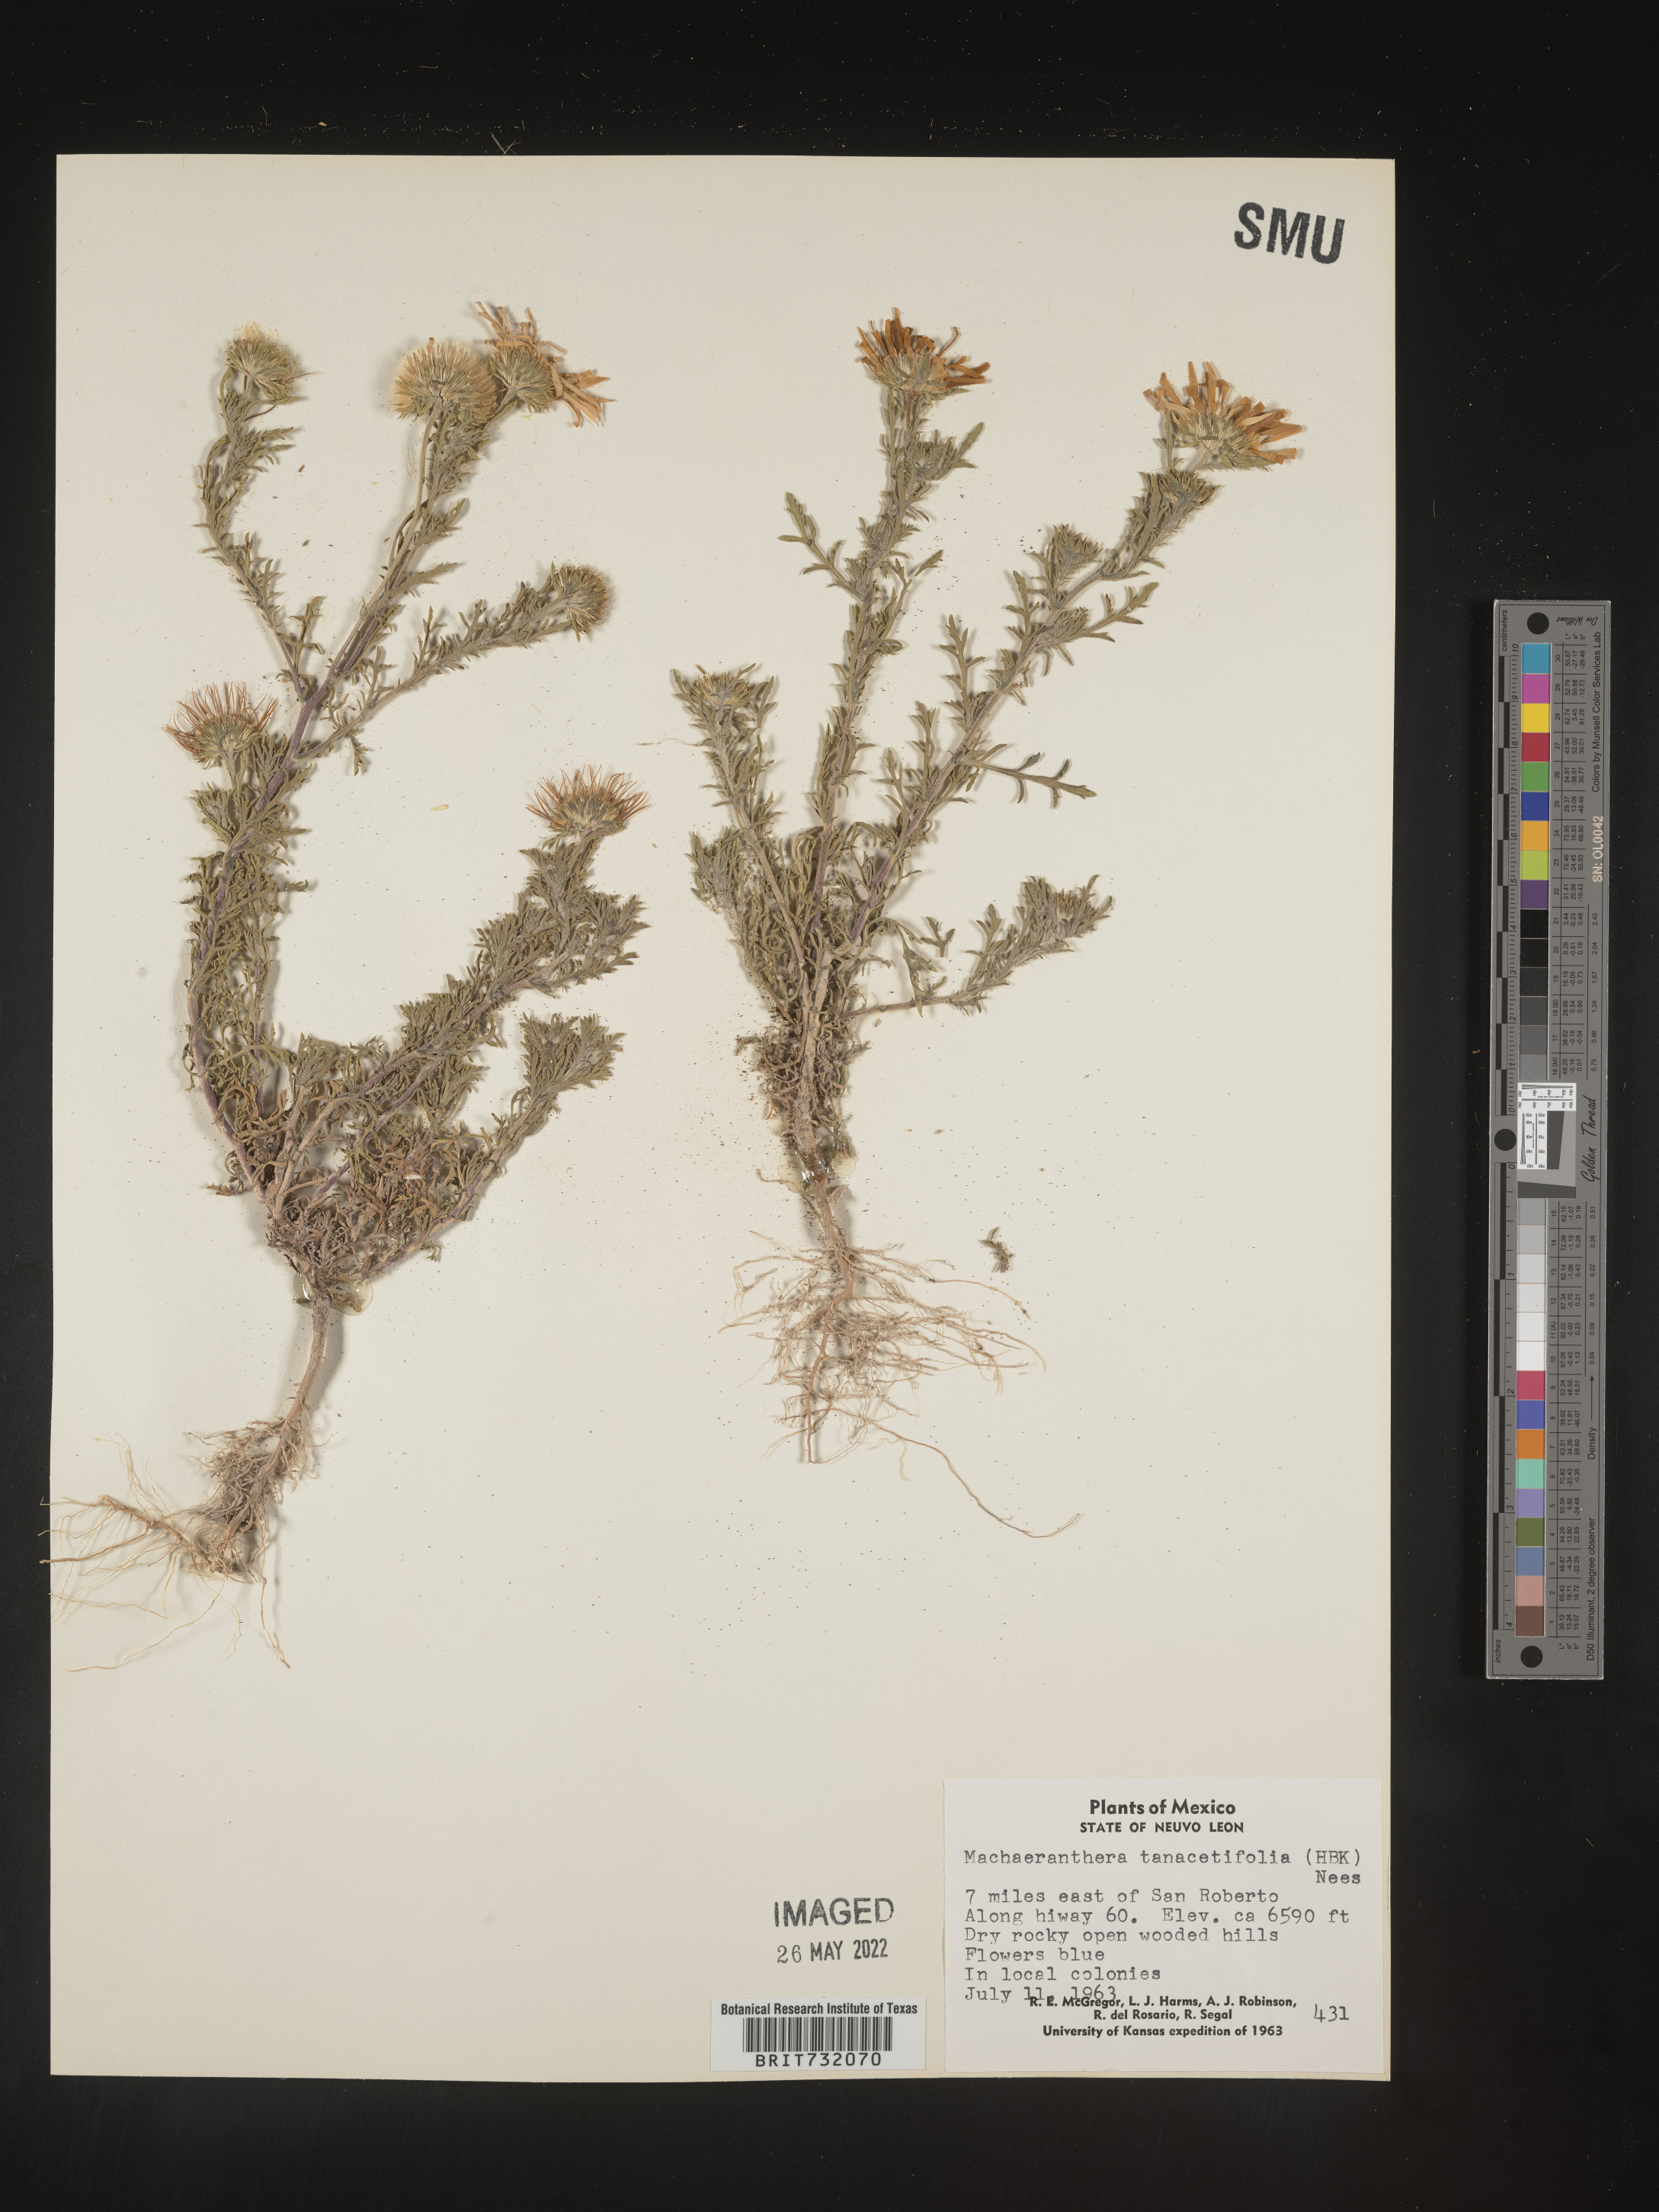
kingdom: Plantae
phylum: Tracheophyta
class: Magnoliopsida
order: Asterales
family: Asteraceae
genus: Machaeranthera
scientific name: Machaeranthera tanacetifolia
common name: Tansy-aster
